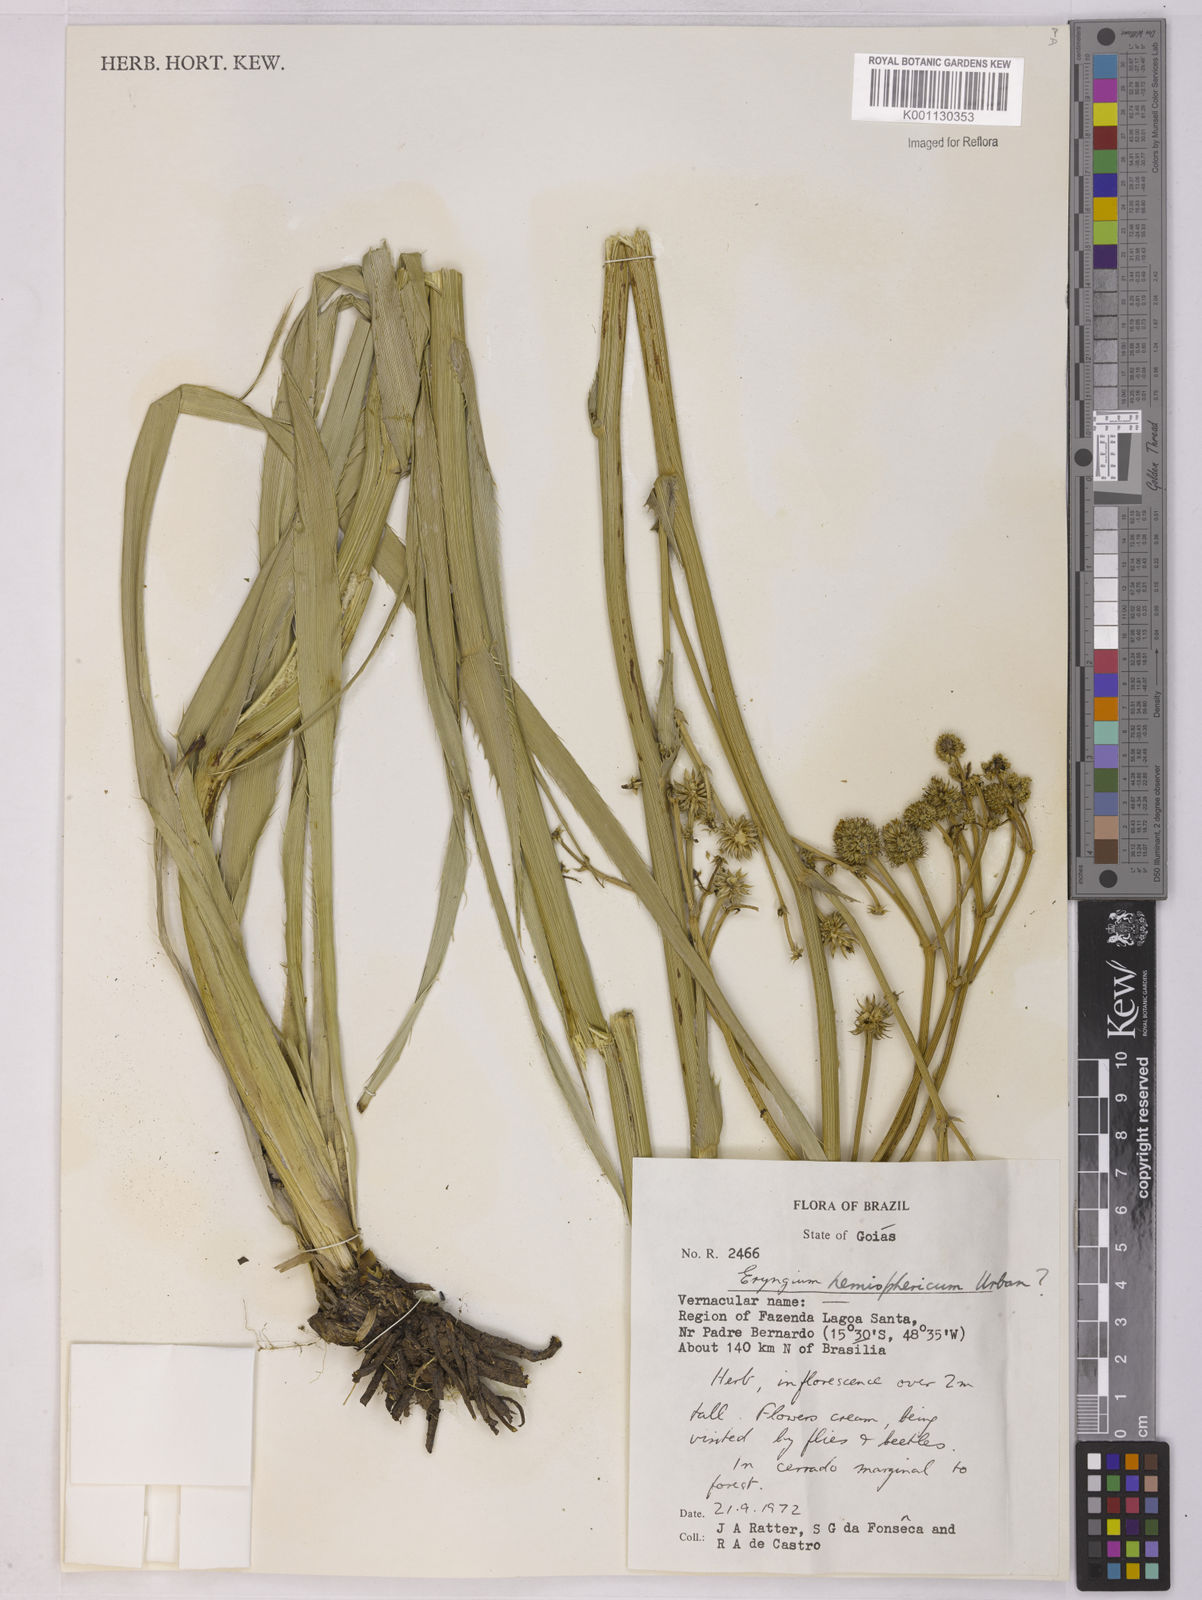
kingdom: Plantae
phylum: Tracheophyta
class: Magnoliopsida
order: Apiales
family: Apiaceae
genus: Eryngium
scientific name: Eryngium hemisphaericum
